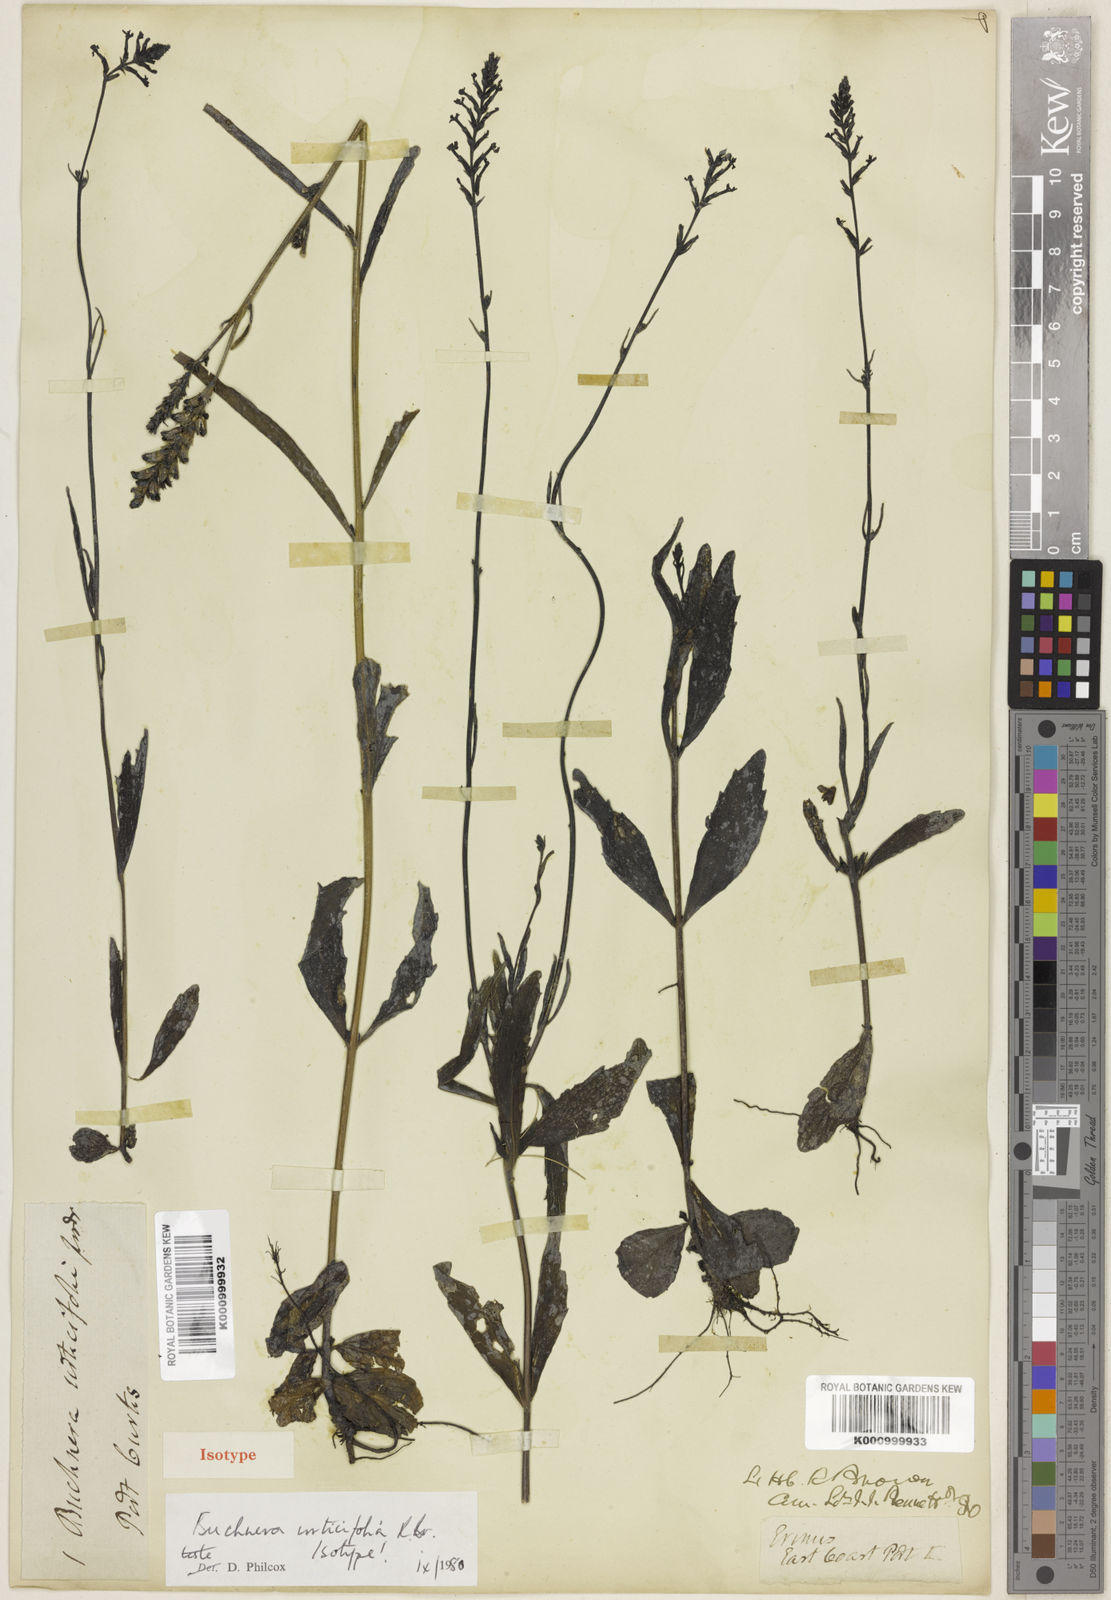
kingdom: Plantae
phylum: Tracheophyta
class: Magnoliopsida
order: Lamiales
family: Orobanchaceae
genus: Buchnera
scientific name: Buchnera urticifolia
